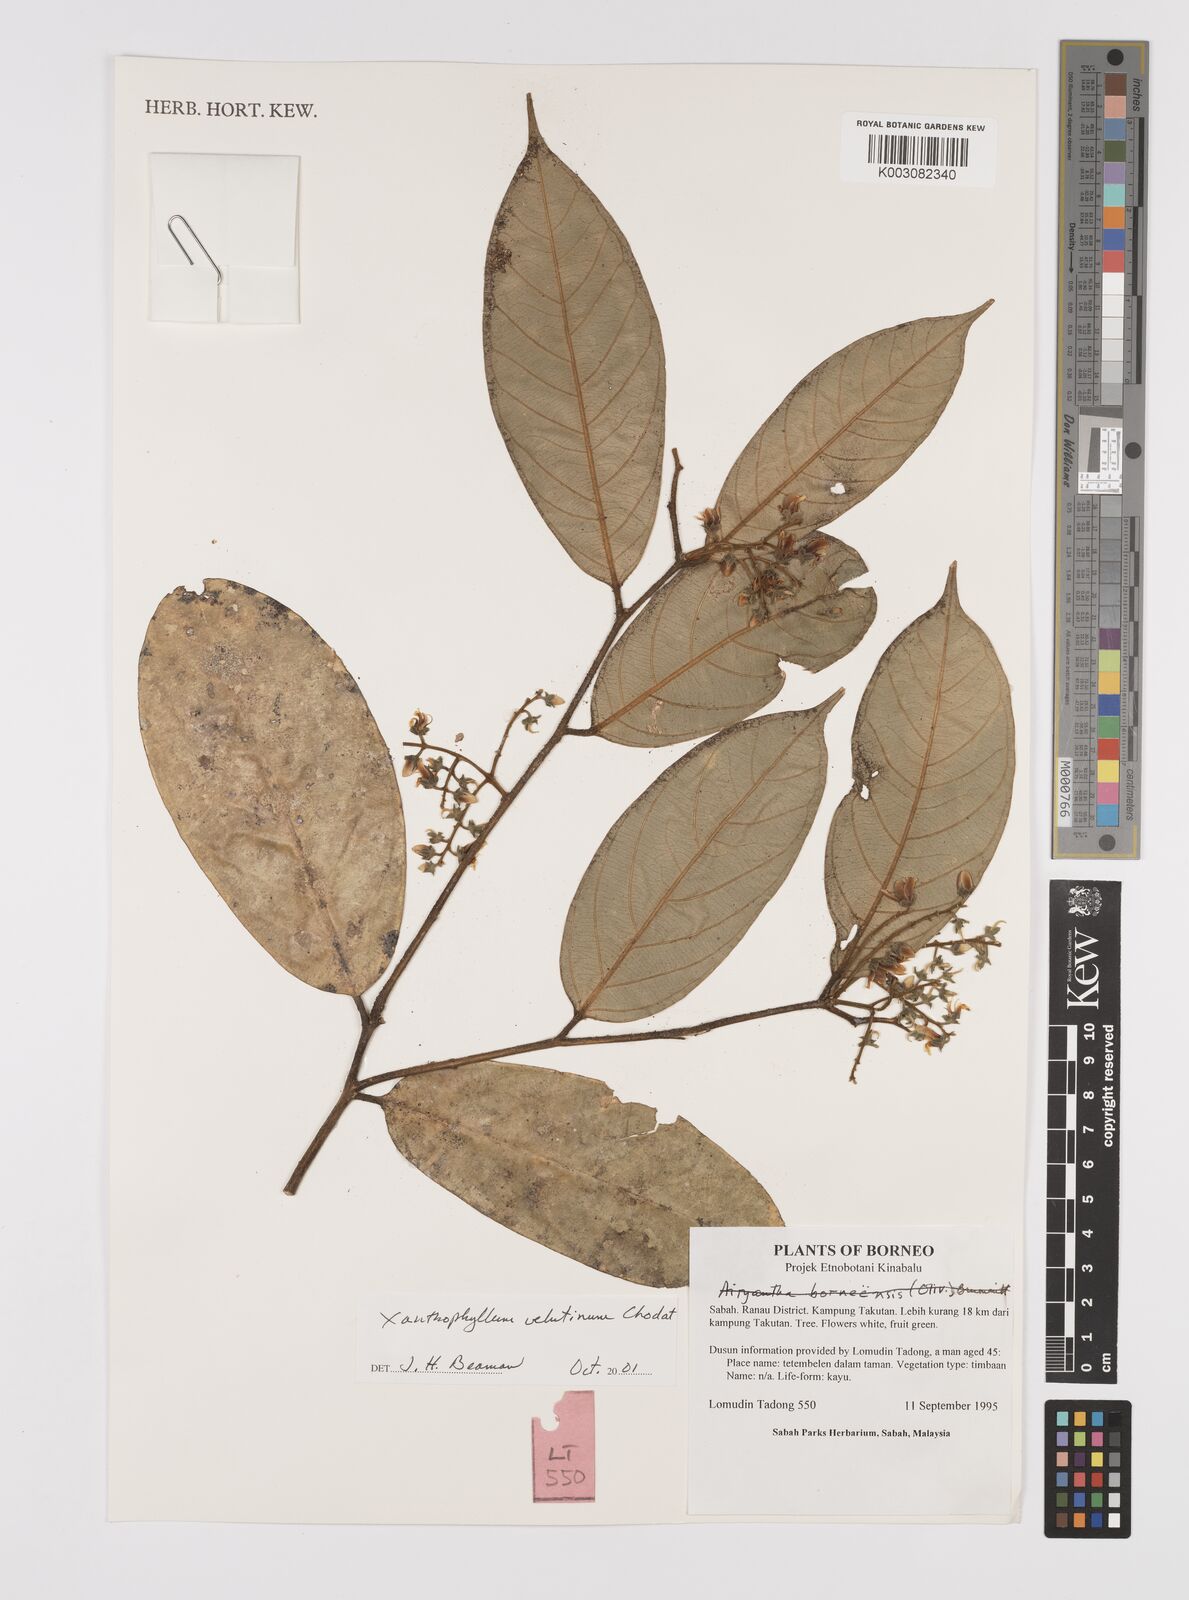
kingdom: Plantae
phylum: Tracheophyta
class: Magnoliopsida
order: Fabales
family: Polygalaceae
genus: Xanthophyllum
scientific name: Xanthophyllum velutinum
